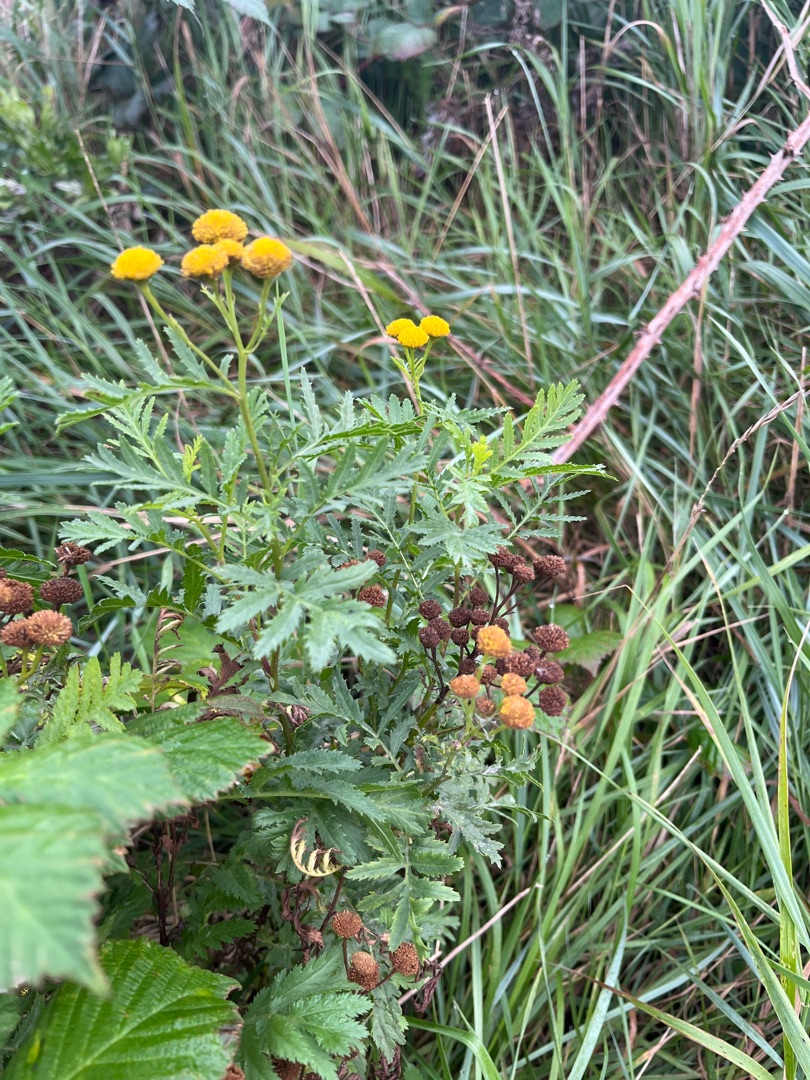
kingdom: Plantae
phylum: Tracheophyta
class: Magnoliopsida
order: Asterales
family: Asteraceae
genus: Tanacetum
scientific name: Tanacetum vulgare
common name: Rejnfan
